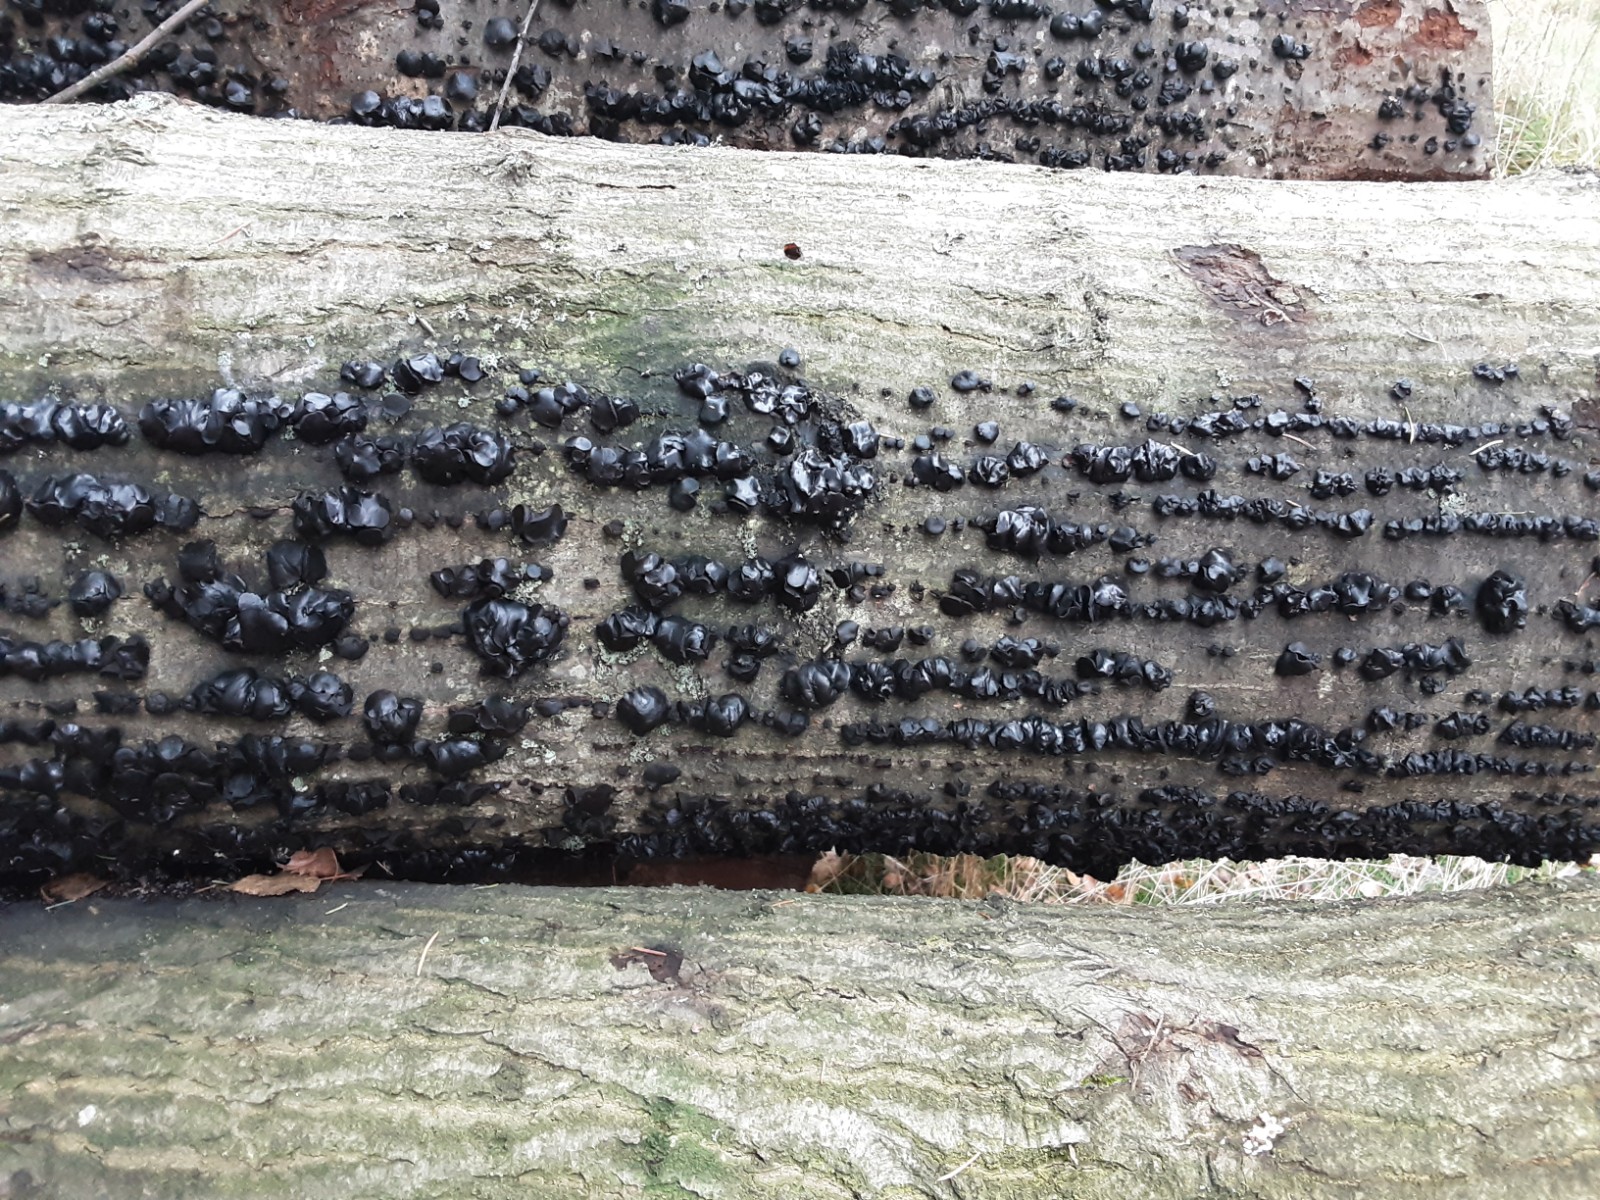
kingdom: Fungi
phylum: Ascomycota
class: Leotiomycetes
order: Phacidiales
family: Phacidiaceae
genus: Bulgaria
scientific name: Bulgaria inquinans
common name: afsmittende topsvamp
